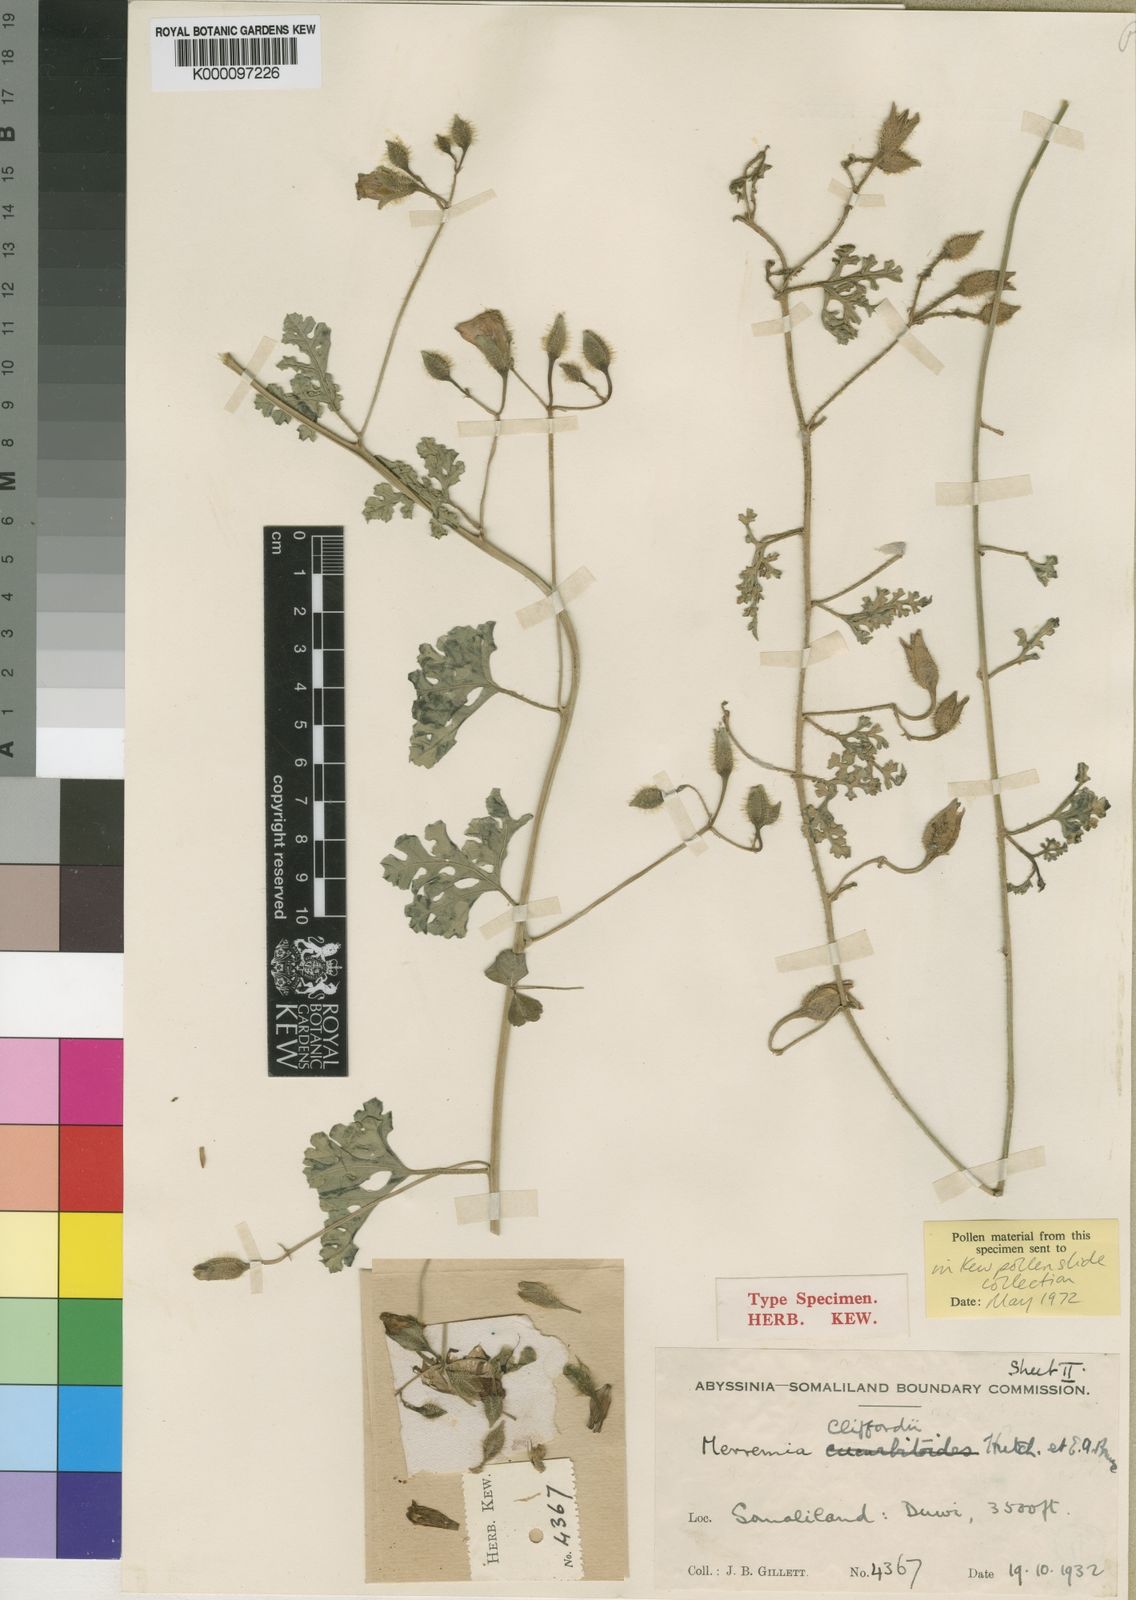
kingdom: Plantae
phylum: Tracheophyta
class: Magnoliopsida
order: Solanales
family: Convolvulaceae
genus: Merremia
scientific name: Merremia gorinii
